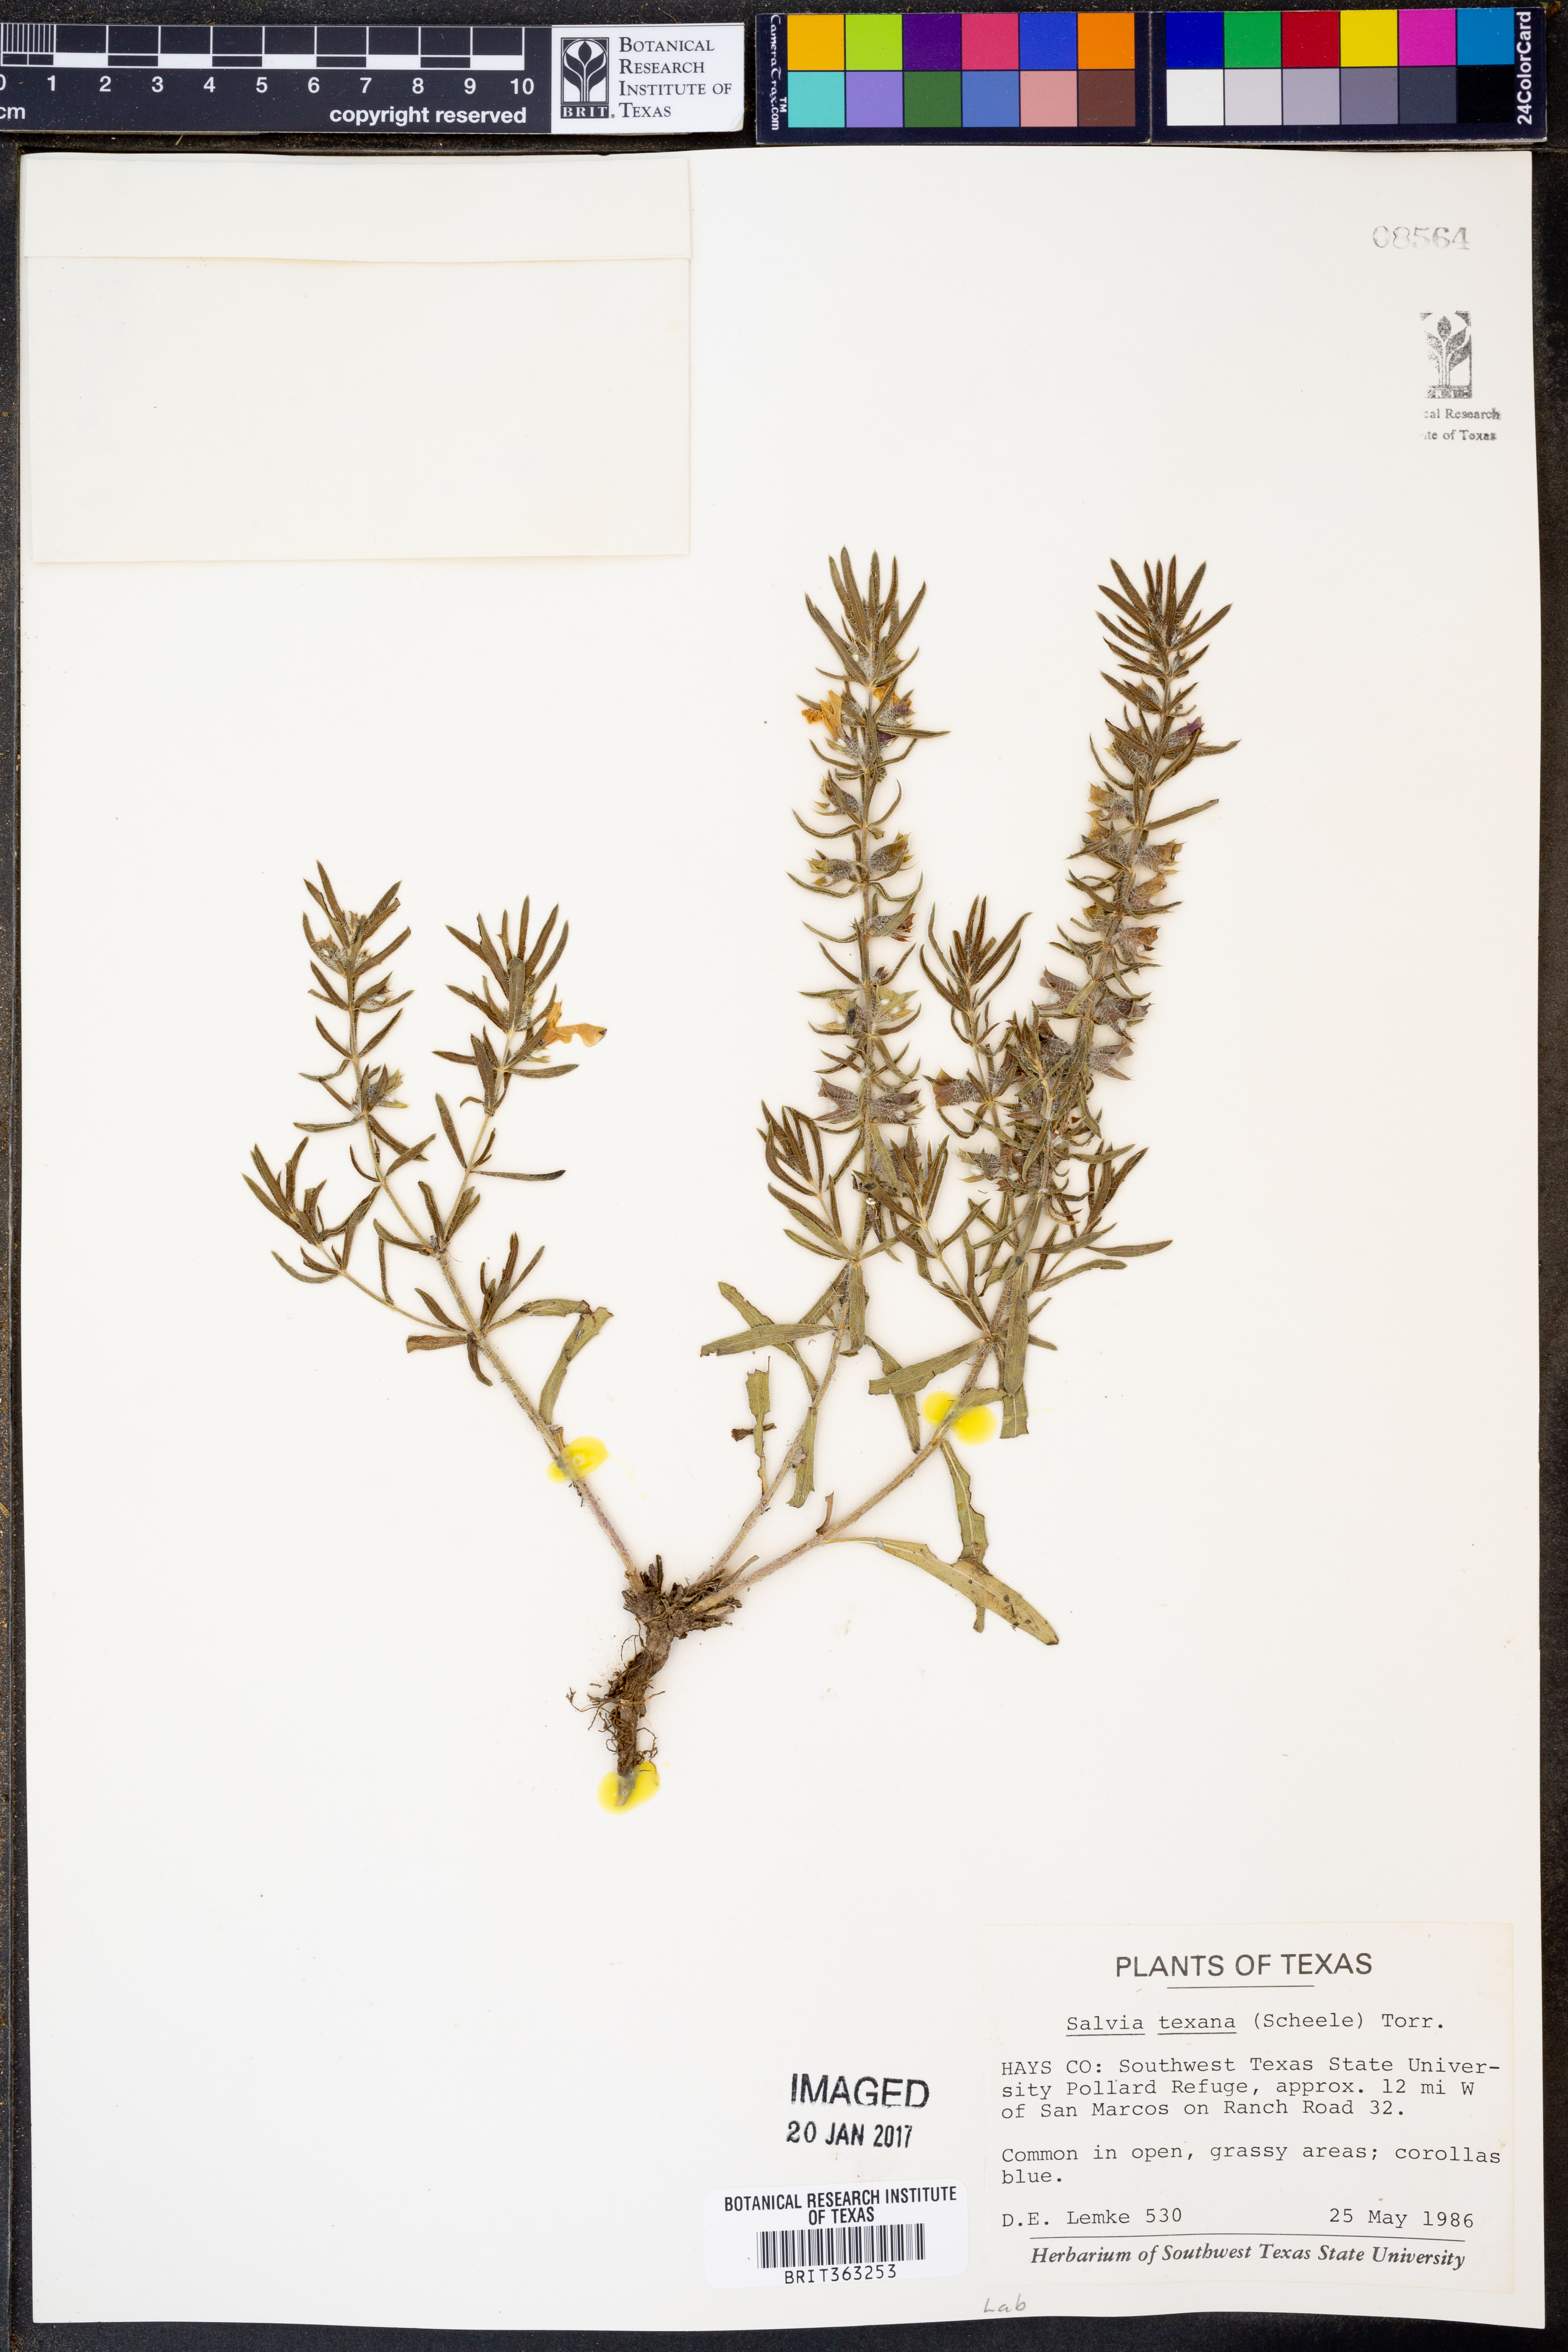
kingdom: Plantae
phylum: Tracheophyta
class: Magnoliopsida
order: Lamiales
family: Lamiaceae
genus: Salvia
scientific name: Salvia texana
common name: Texas sage
